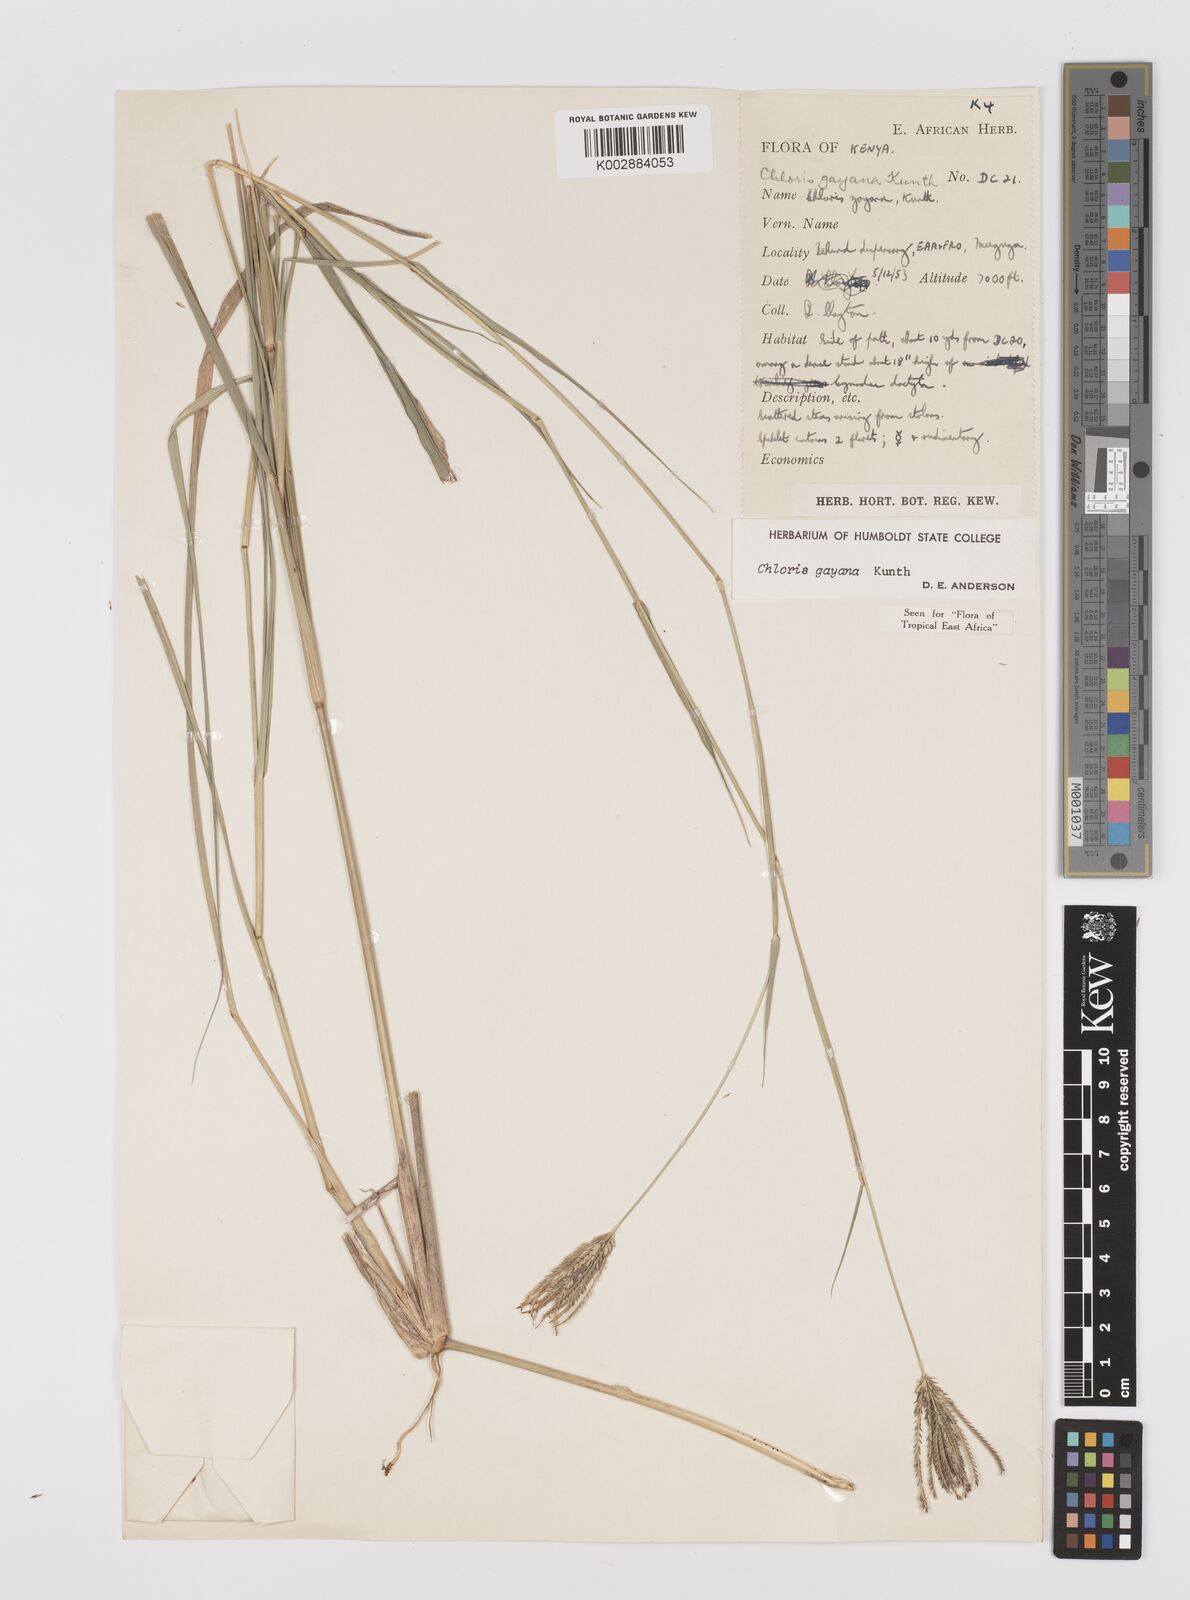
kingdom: Plantae
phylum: Tracheophyta
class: Liliopsida
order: Poales
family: Poaceae
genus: Chloris
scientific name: Chloris gayana
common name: Rhodes grass
